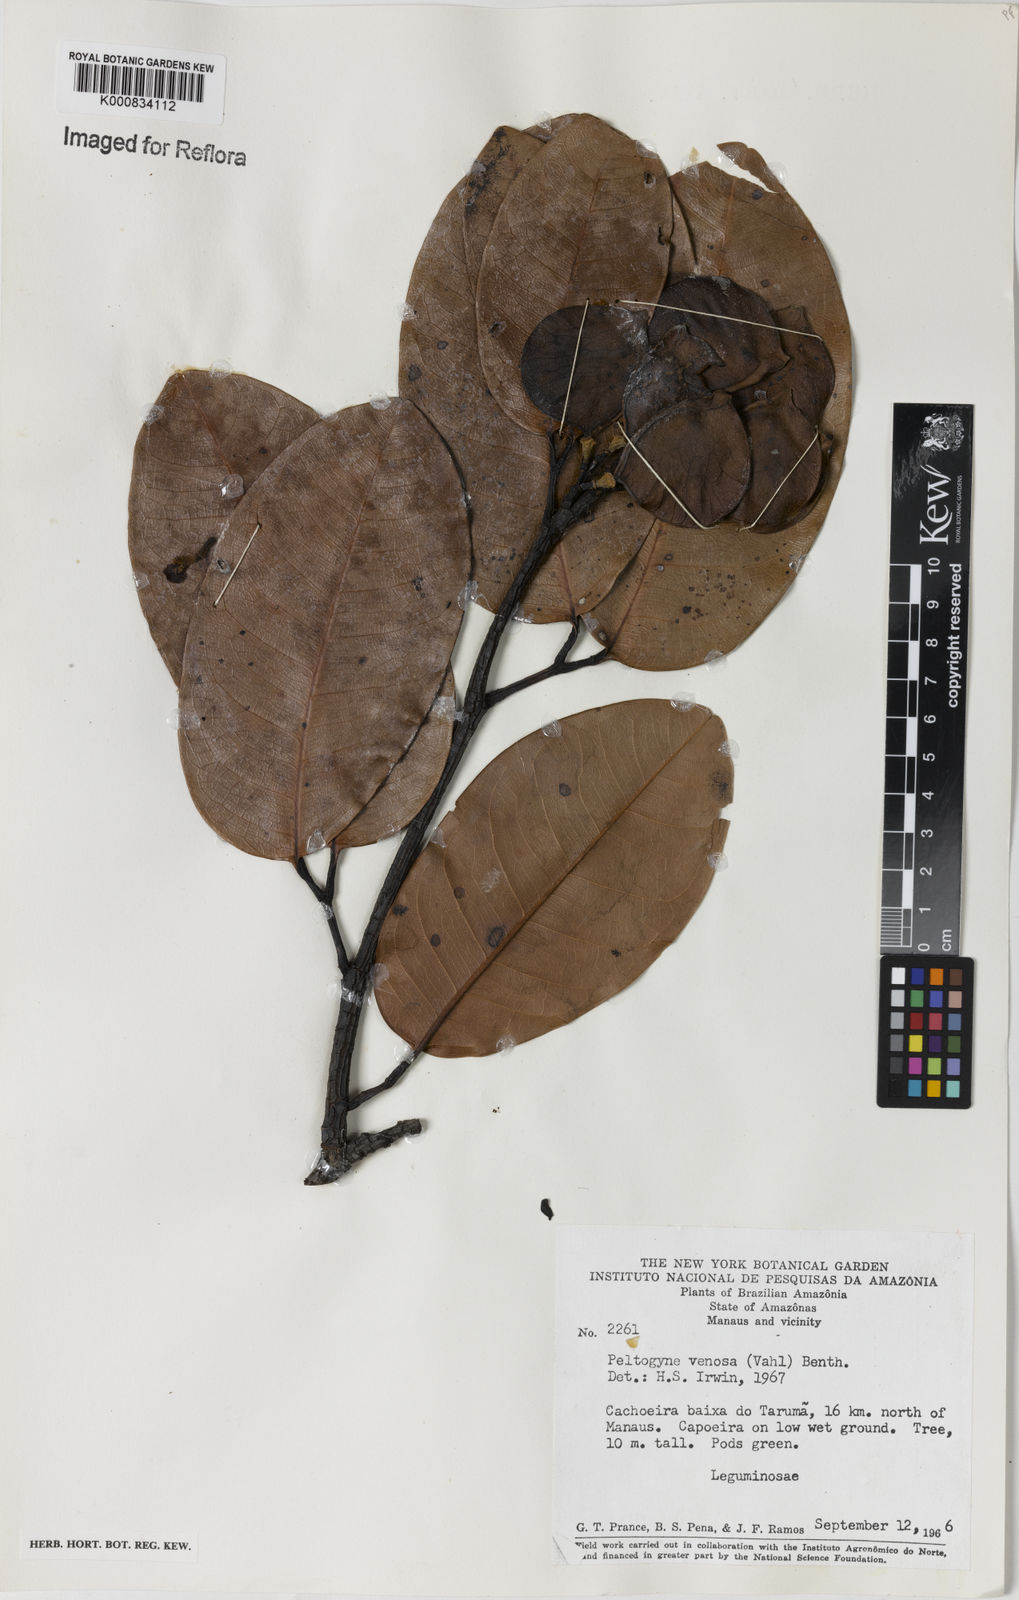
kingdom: Plantae
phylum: Tracheophyta
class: Magnoliopsida
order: Fabales
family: Fabaceae
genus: Peltogyne
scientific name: Peltogyne venosa
